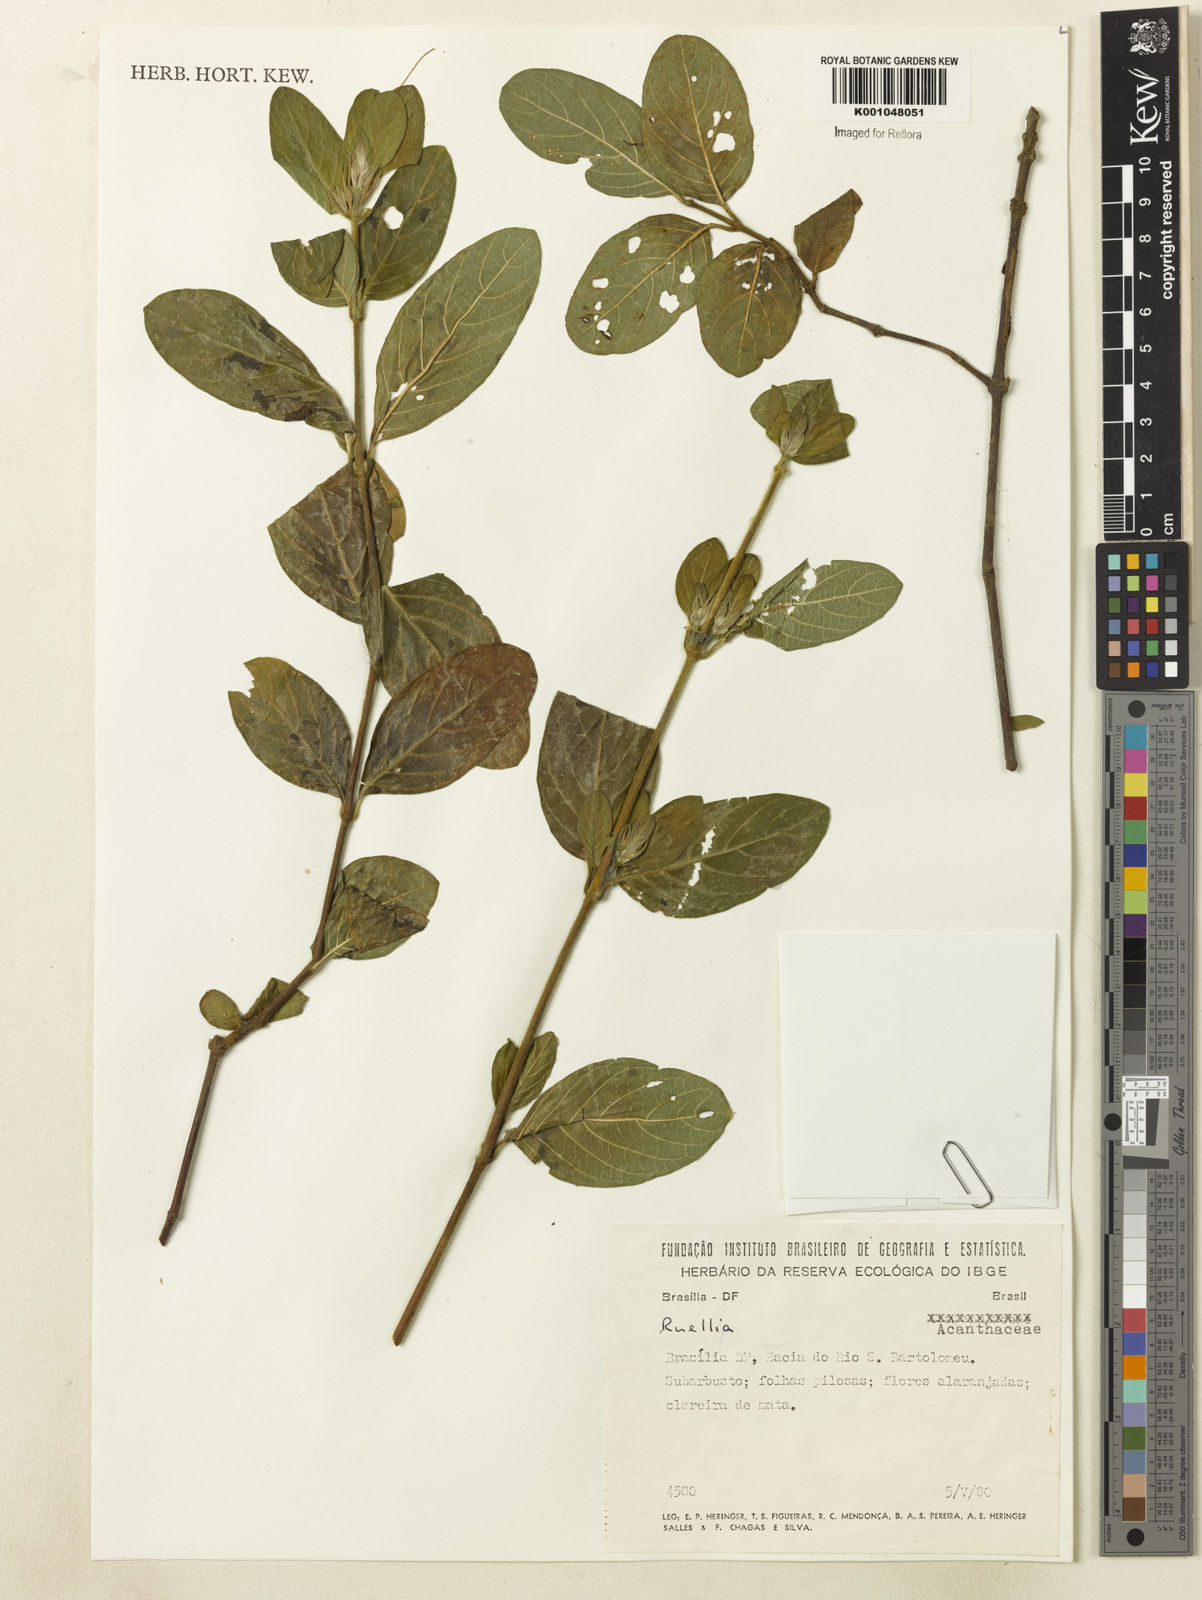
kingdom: Plantae
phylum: Tracheophyta
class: Magnoliopsida
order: Lamiales
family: Acanthaceae
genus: Ruellia
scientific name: Ruellia densa
